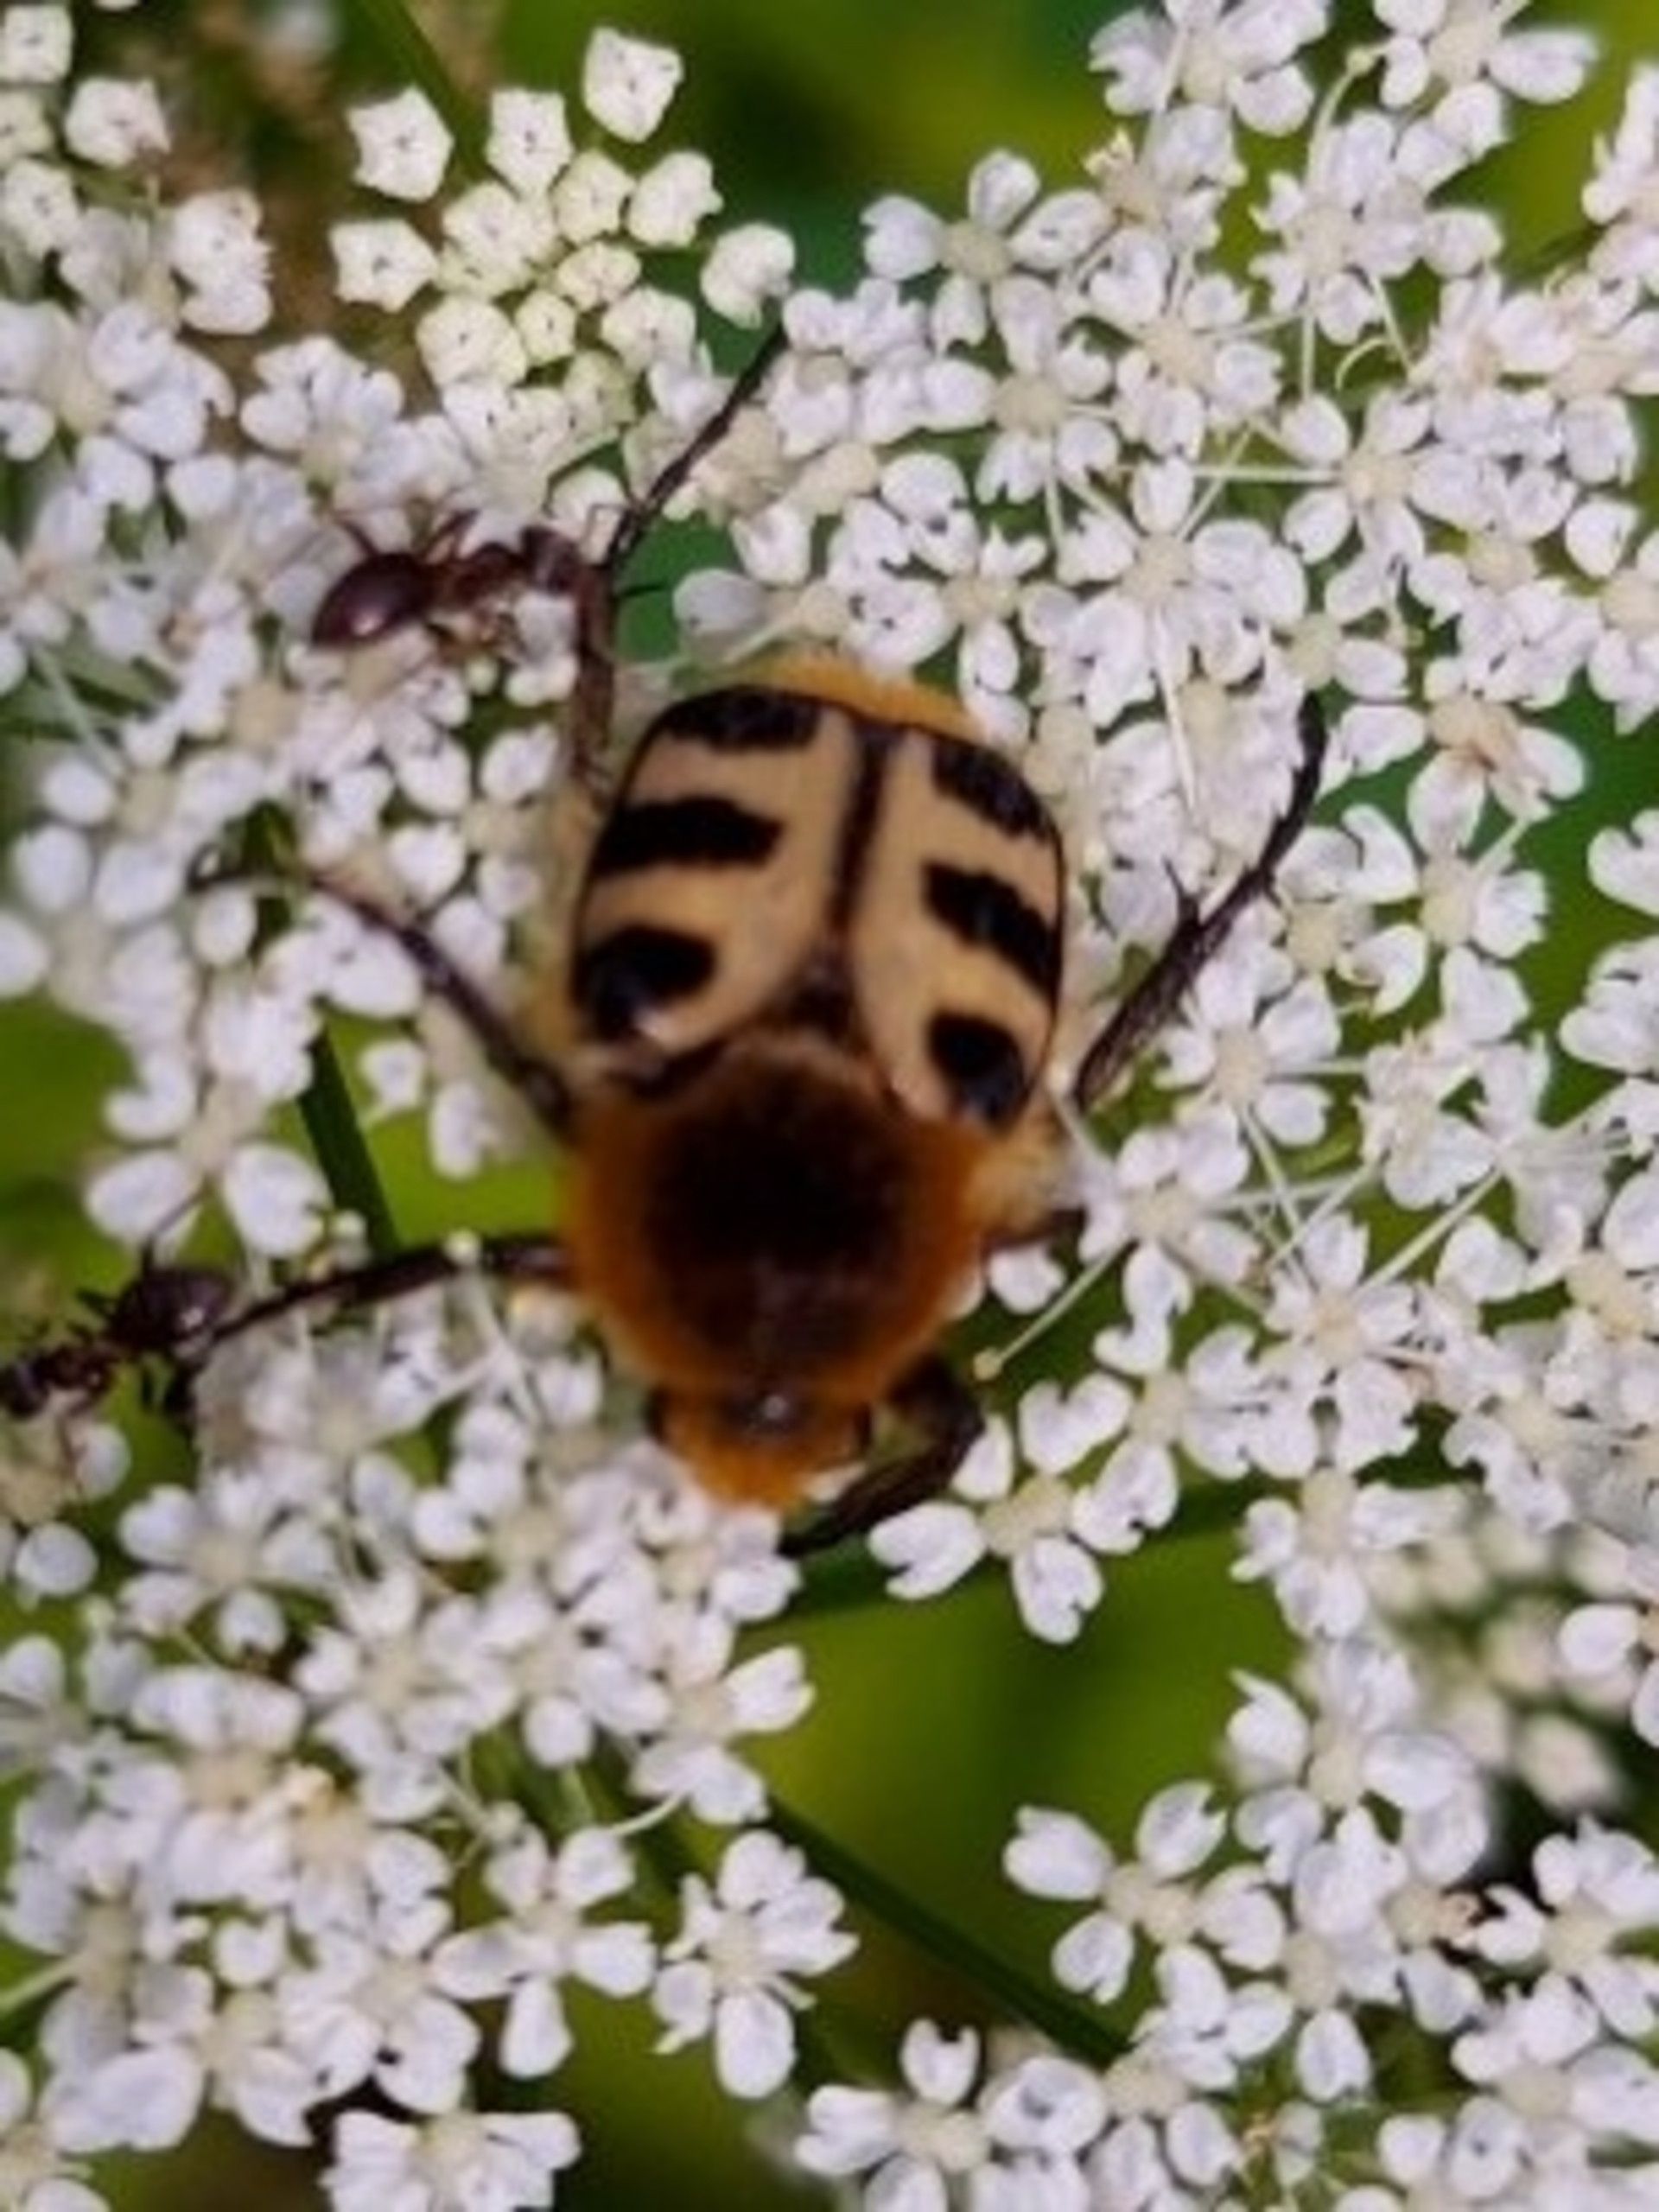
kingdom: Animalia
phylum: Arthropoda
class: Insecta
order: Coleoptera
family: Scarabaeidae
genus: Trichius
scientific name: Trichius gallicus
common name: Lille humlebille
